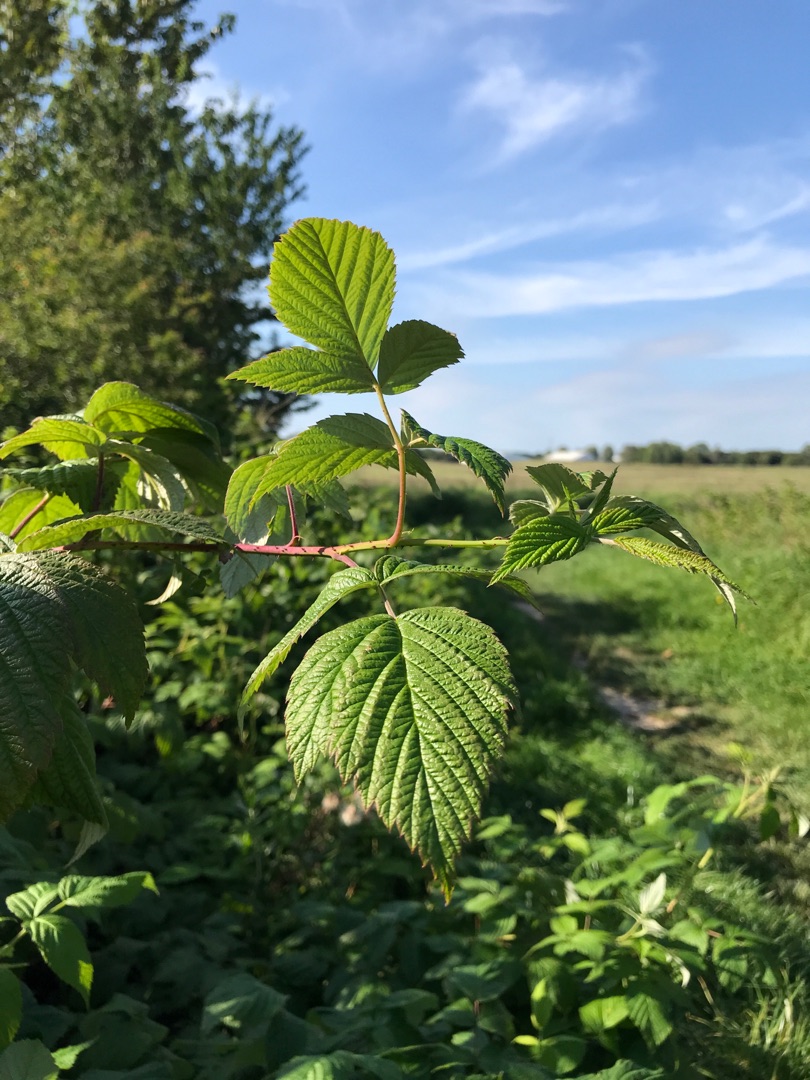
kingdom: Plantae
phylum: Tracheophyta
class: Magnoliopsida
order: Rosales
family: Rosaceae
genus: Rubus
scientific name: Rubus idaeus
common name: Hindbær
